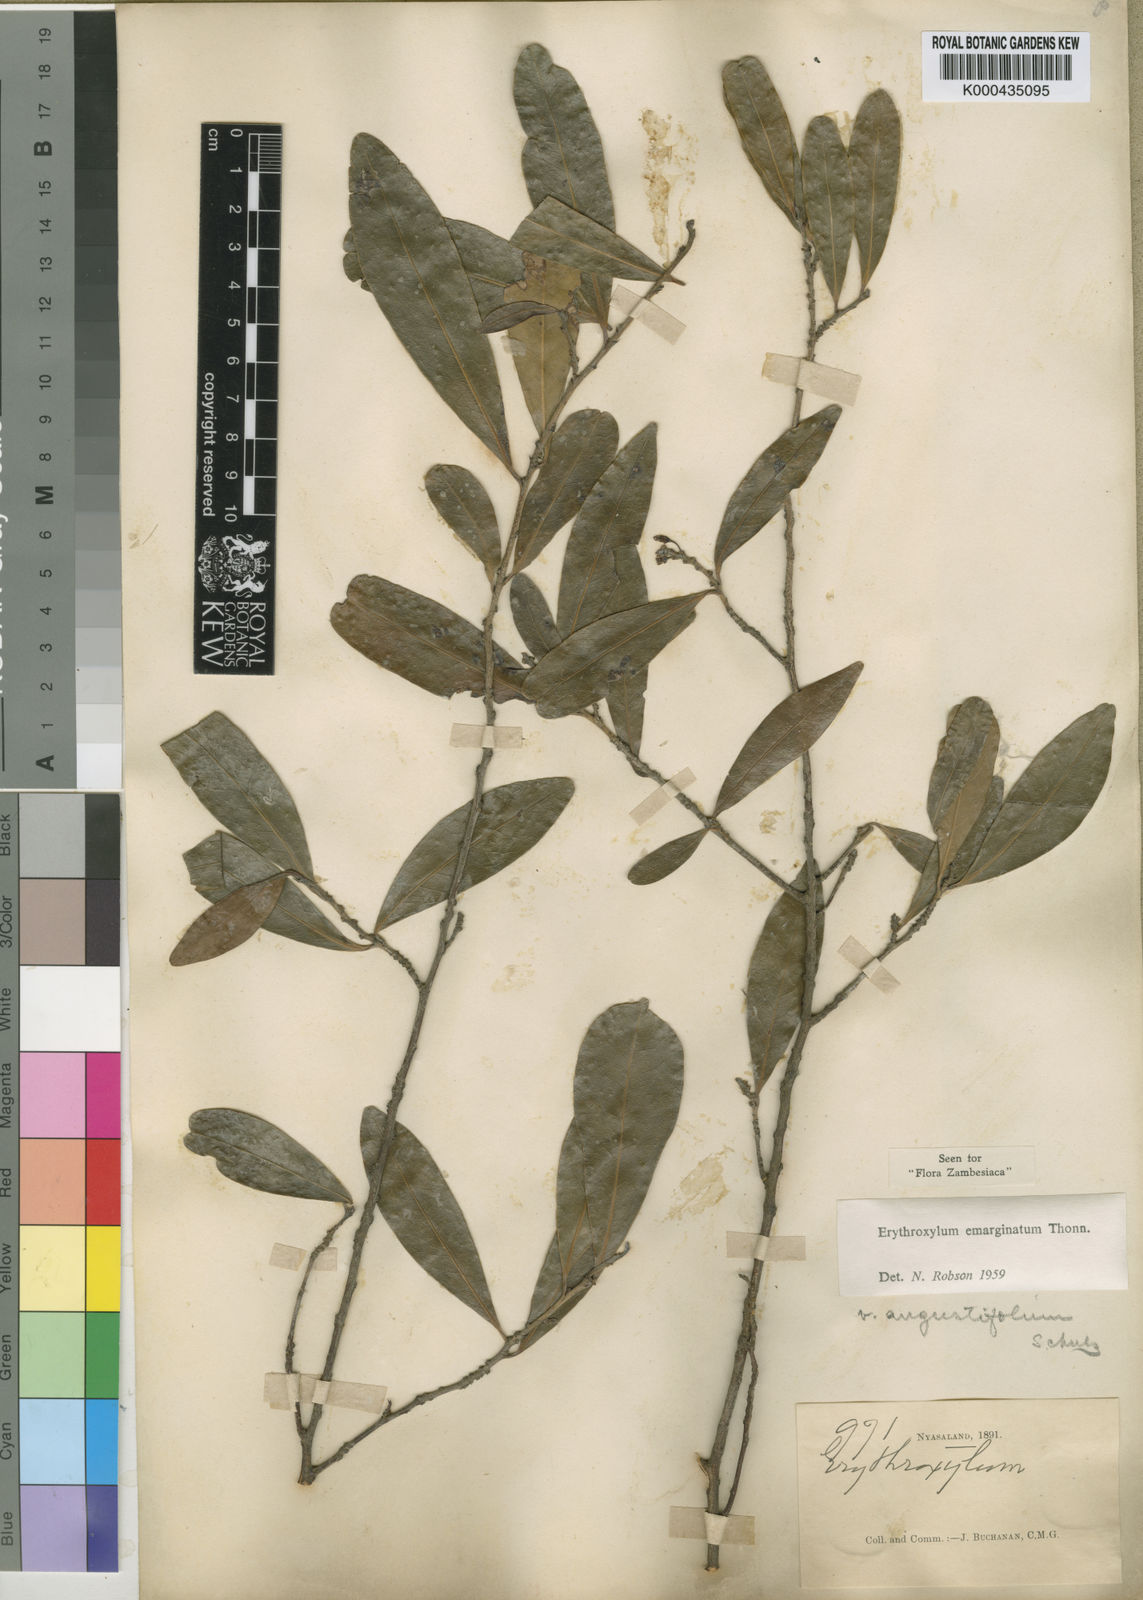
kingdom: Plantae
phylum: Tracheophyta
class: Magnoliopsida
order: Malpighiales
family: Erythroxylaceae
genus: Erythroxylum
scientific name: Erythroxylum emarginatum
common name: African coca-tree
